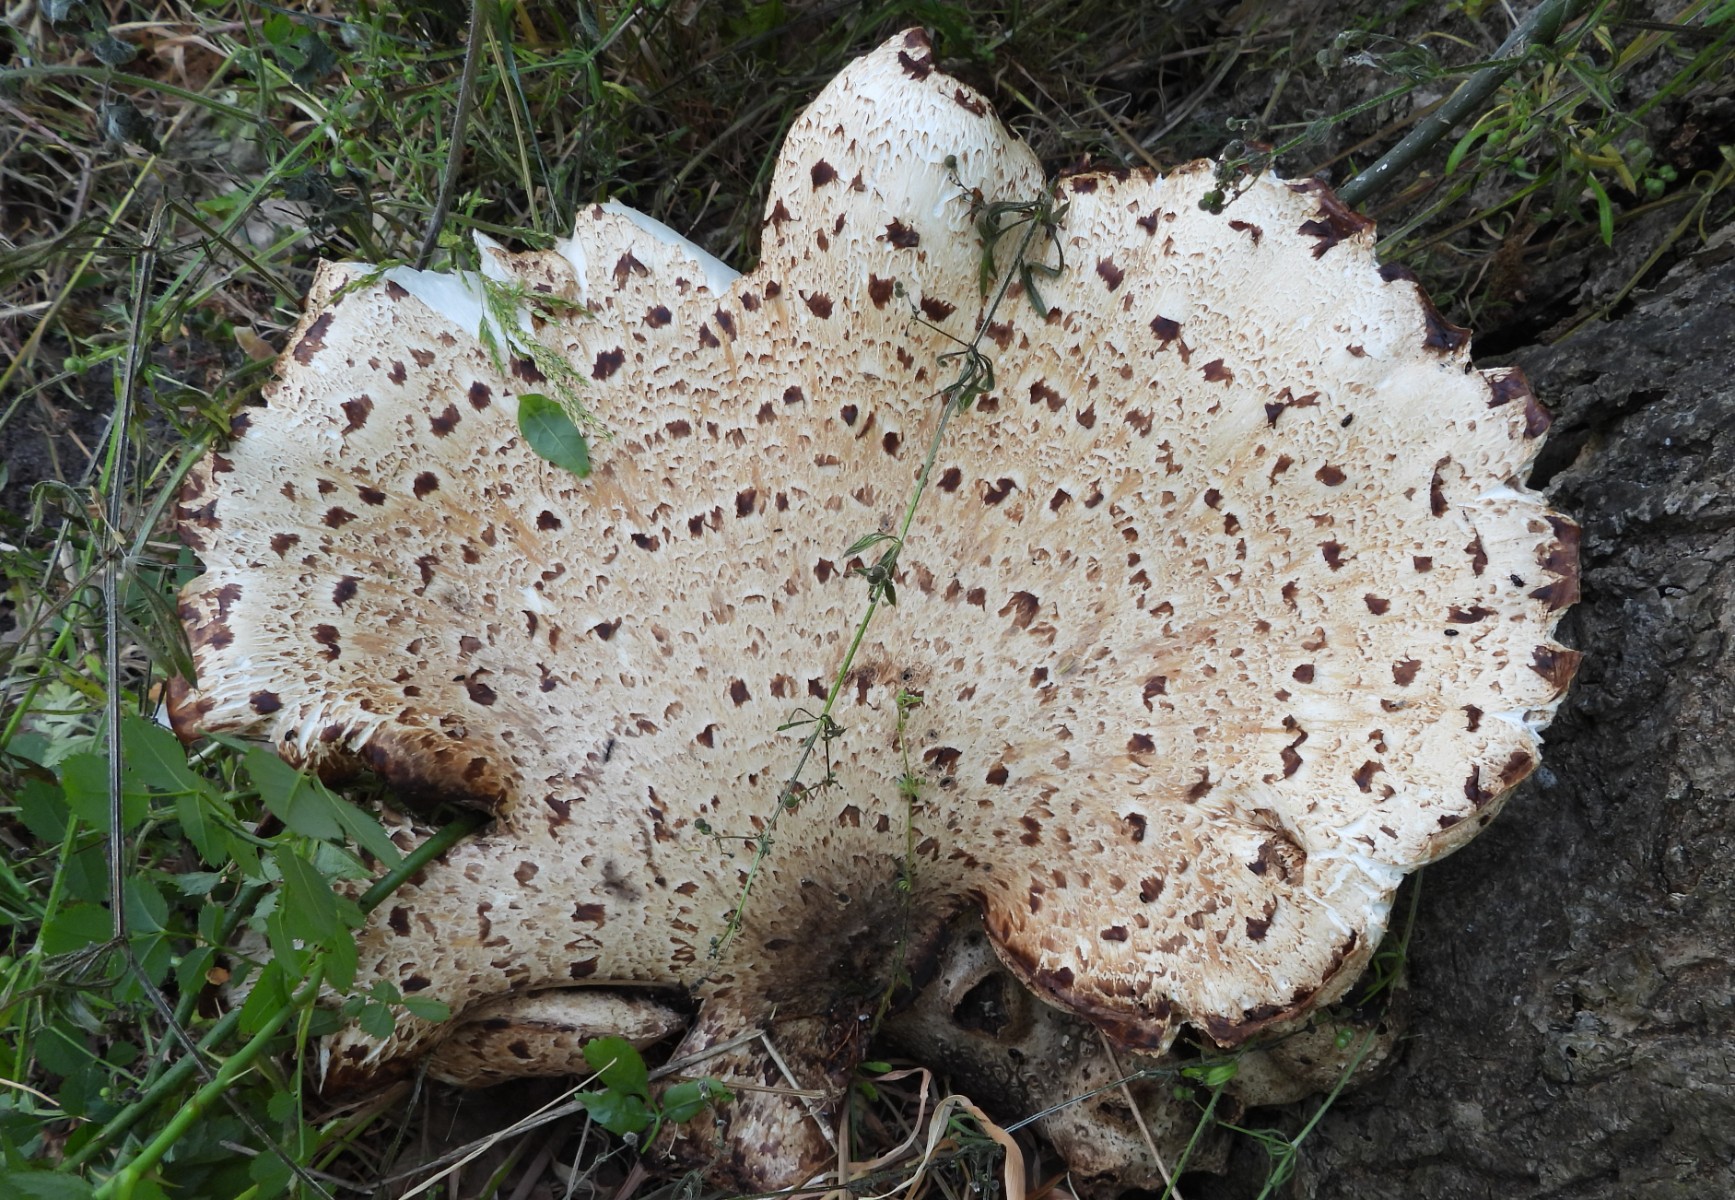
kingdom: Fungi
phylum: Basidiomycota
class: Agaricomycetes
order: Polyporales
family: Polyporaceae
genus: Cerioporus
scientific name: Cerioporus squamosus
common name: skællet stilkporesvamp
